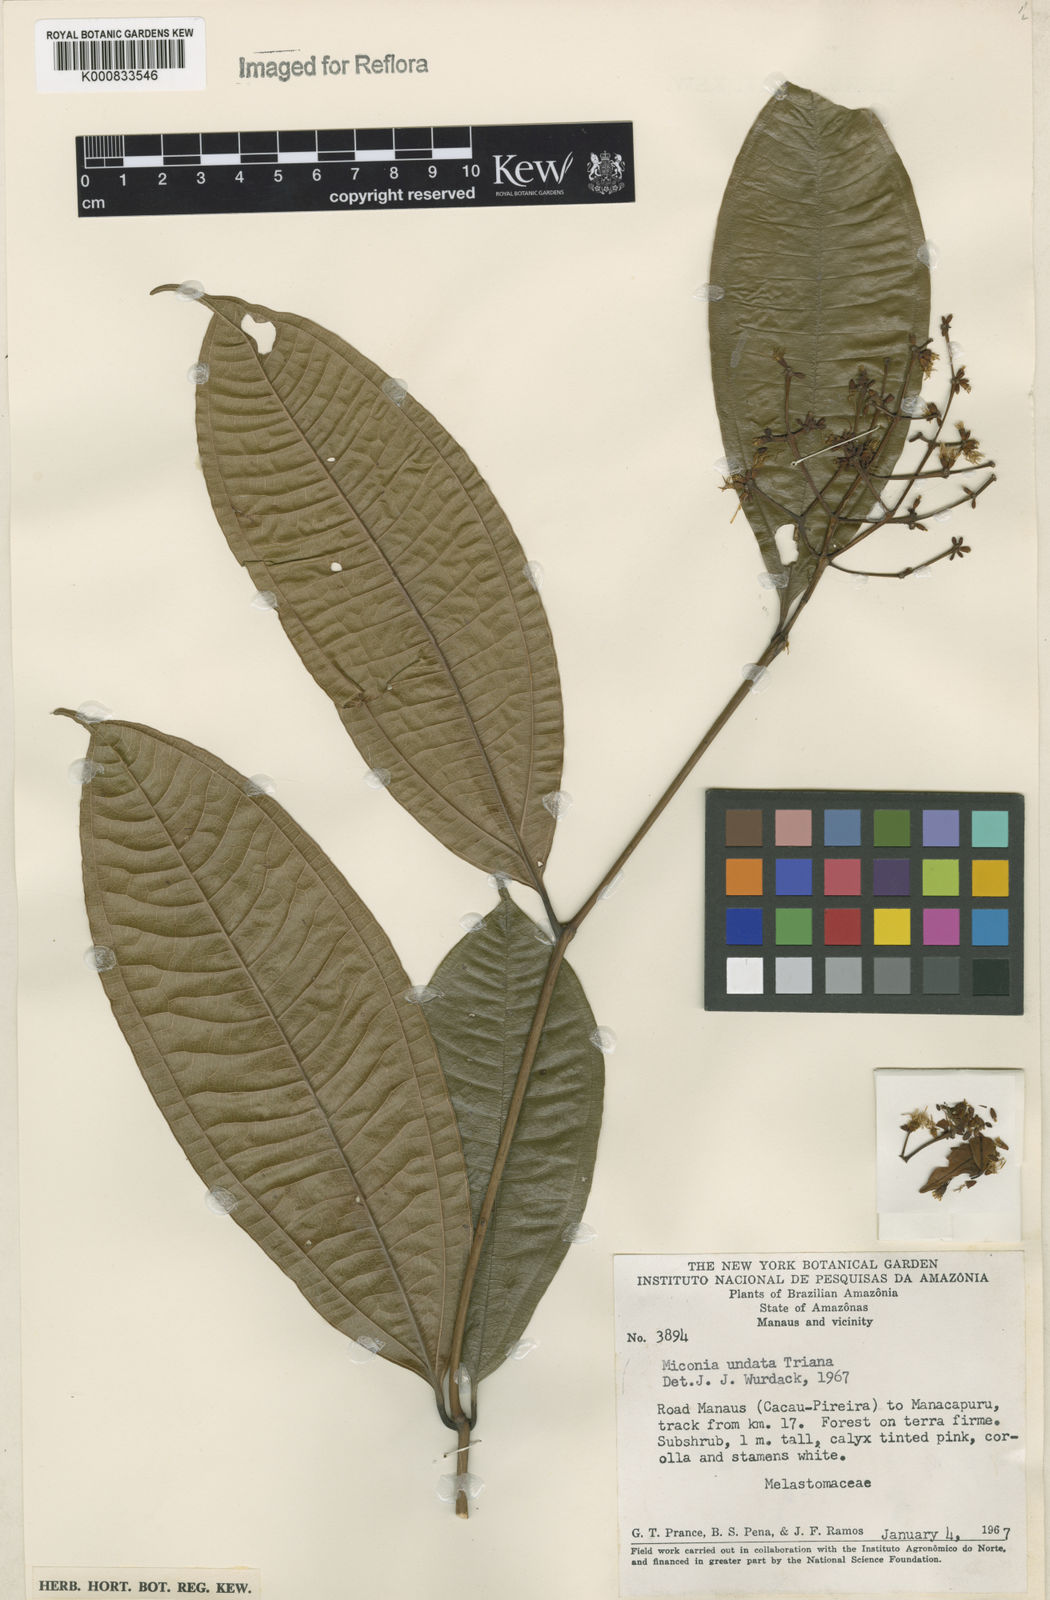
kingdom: Plantae
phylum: Tracheophyta
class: Magnoliopsida
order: Myrtales
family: Melastomataceae
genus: Miconia
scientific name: Miconia undata
